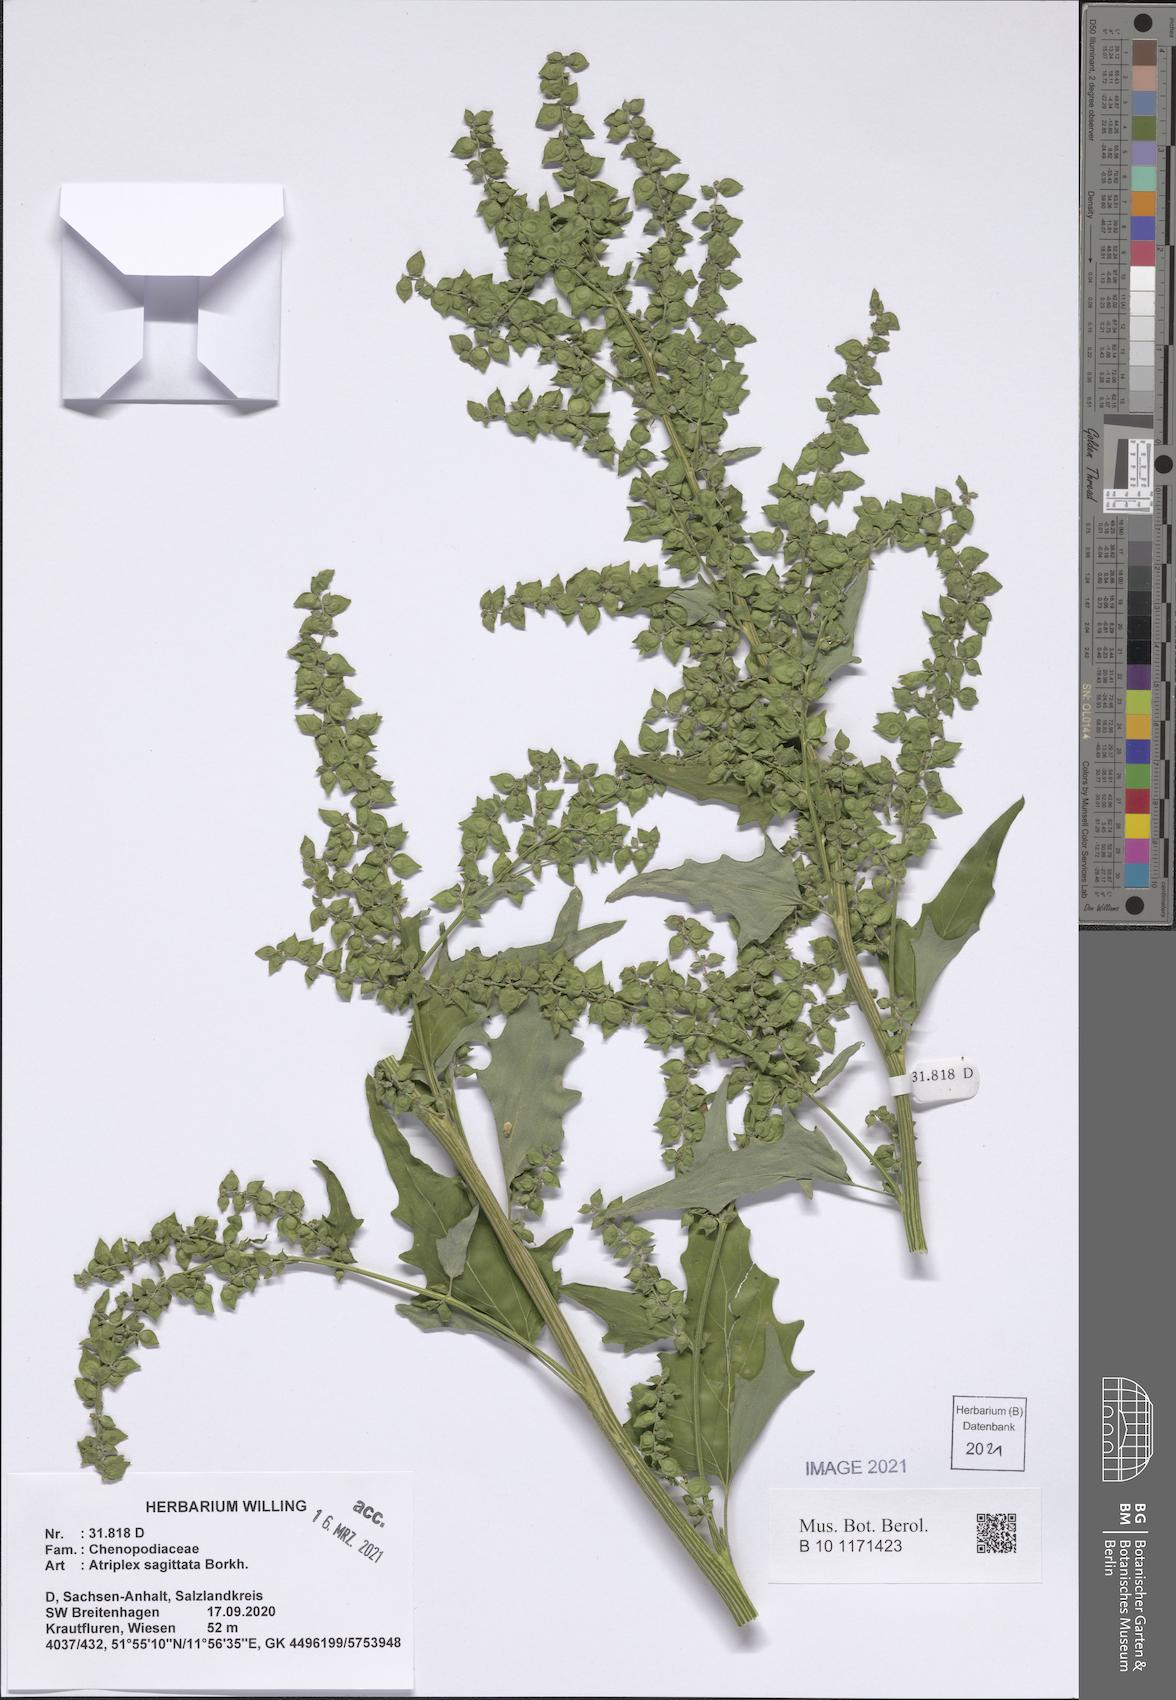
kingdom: Plantae
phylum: Tracheophyta
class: Magnoliopsida
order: Caryophyllales
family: Amaranthaceae
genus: Atriplex
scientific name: Atriplex sagittata
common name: Purple orache
